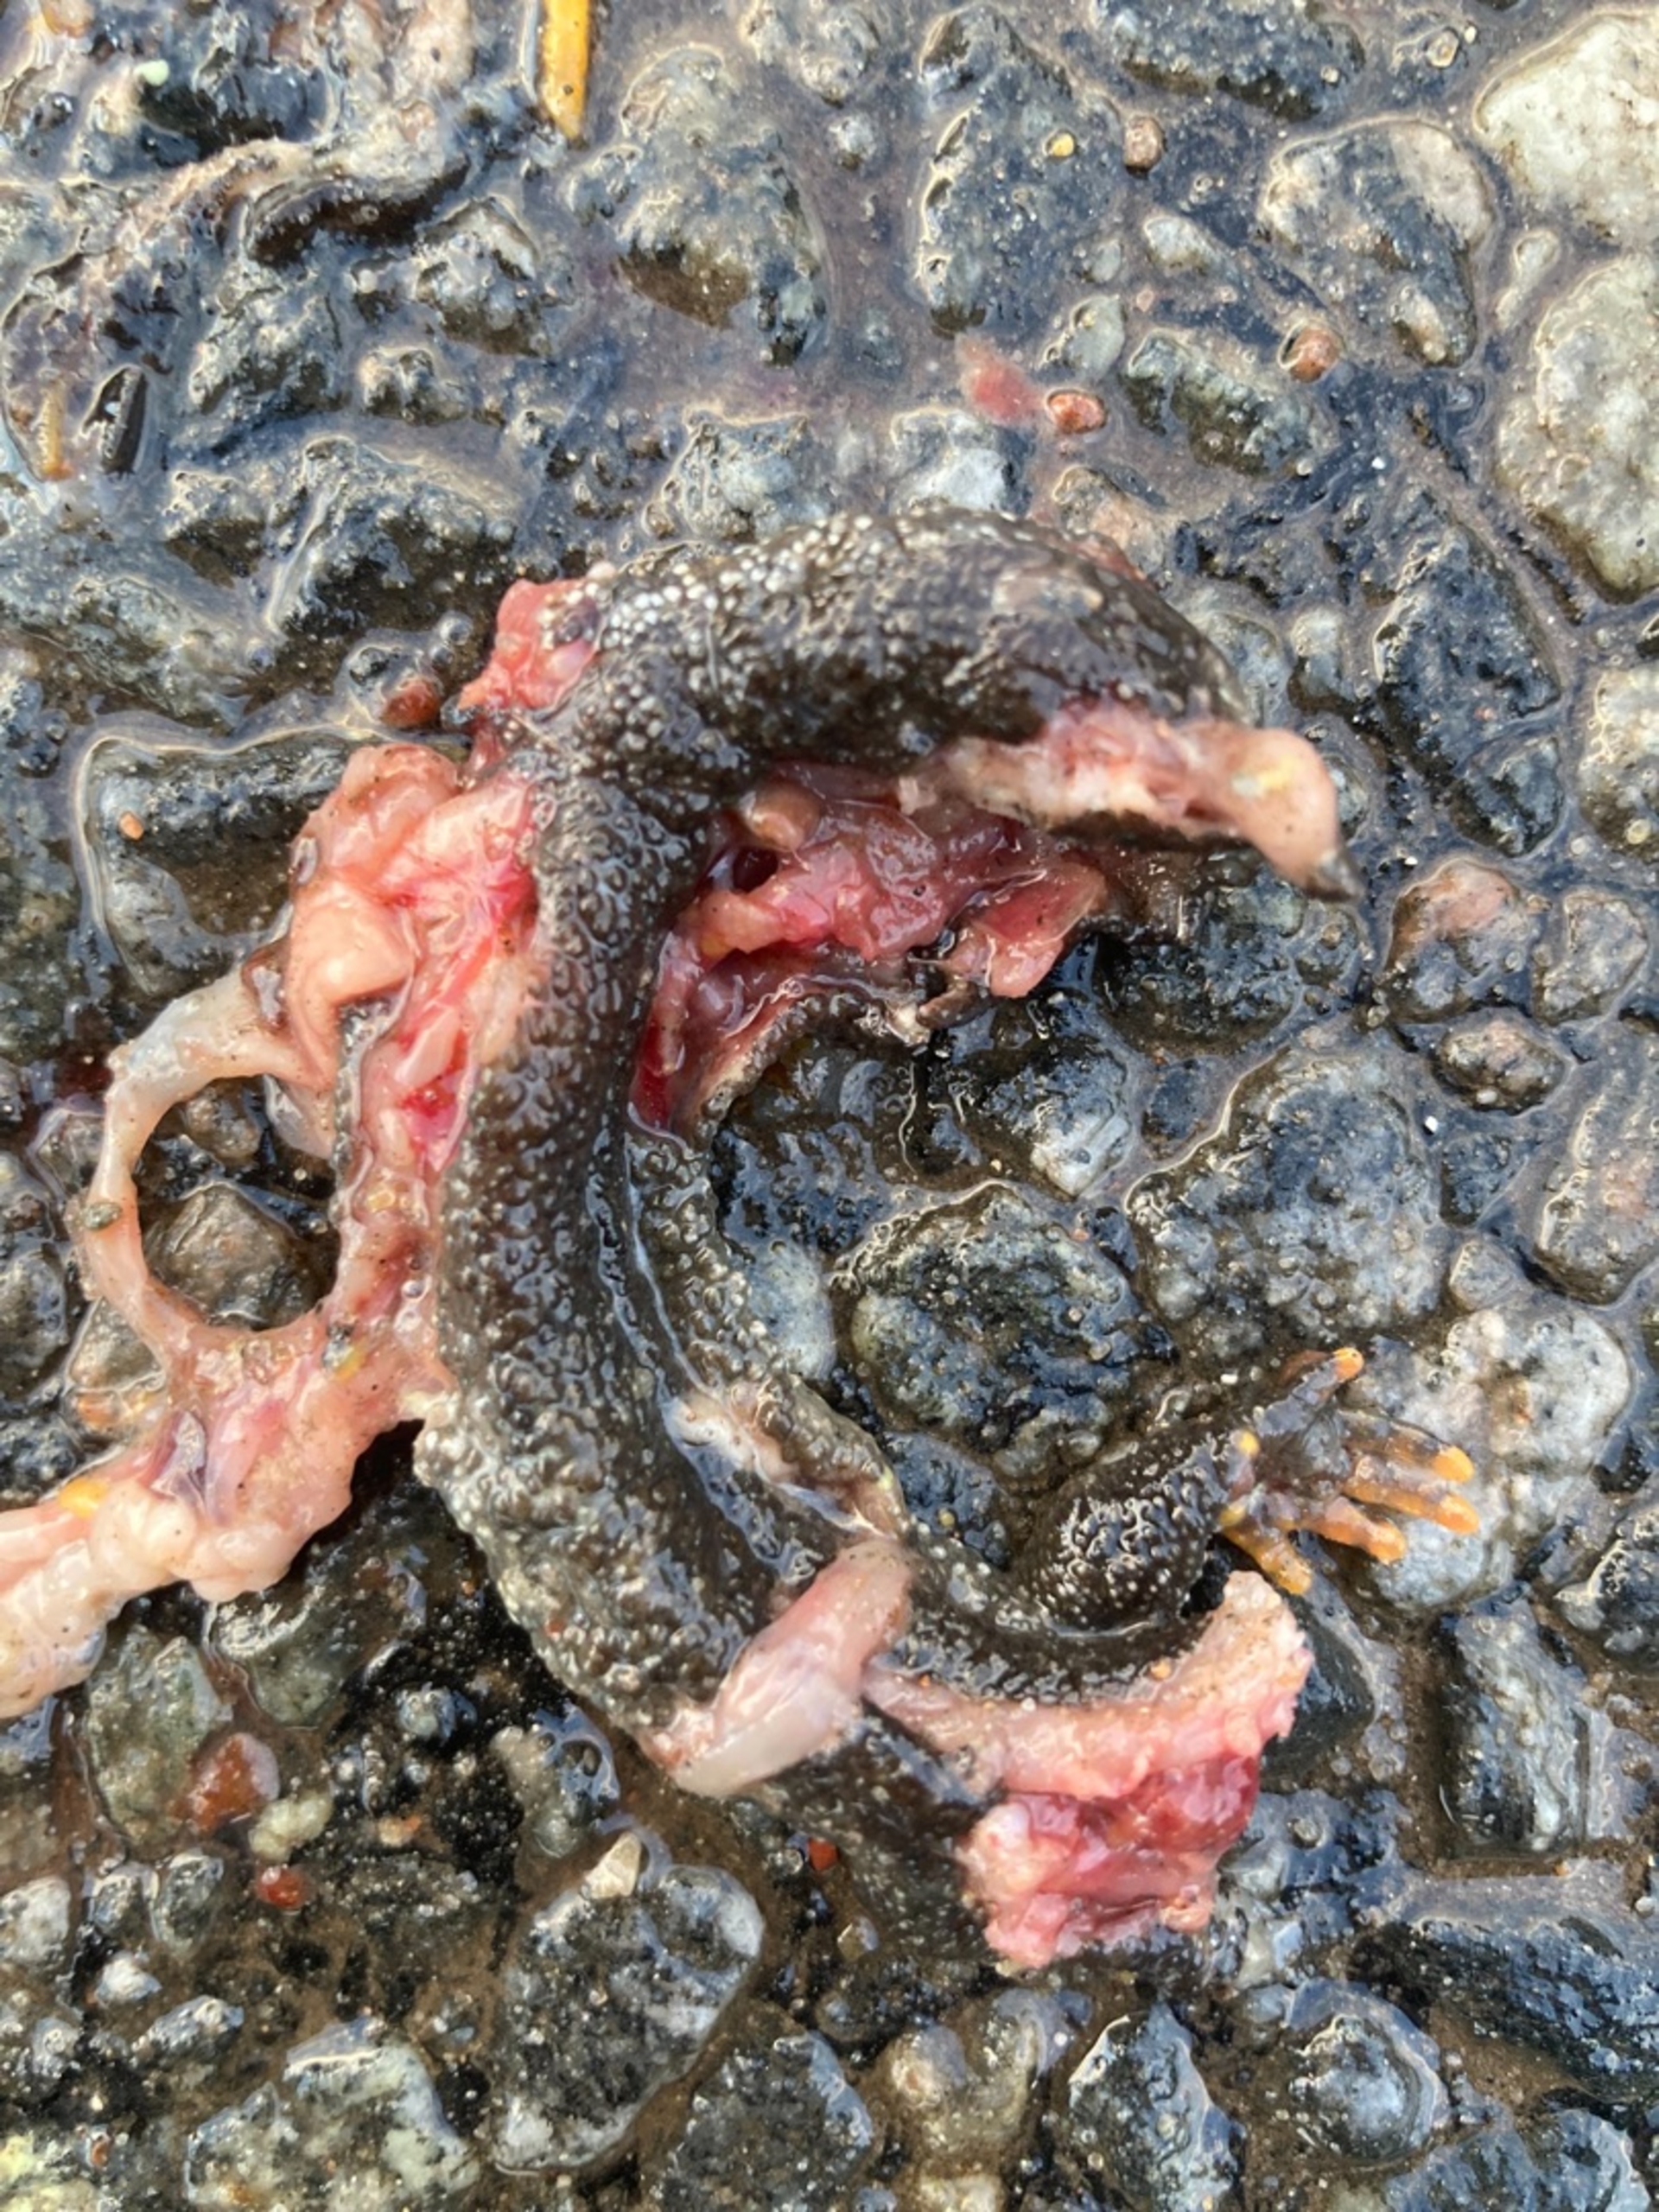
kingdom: Animalia
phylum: Chordata
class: Amphibia
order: Caudata
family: Salamandridae
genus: Triturus
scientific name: Triturus cristatus
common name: Stor vandsalamander
